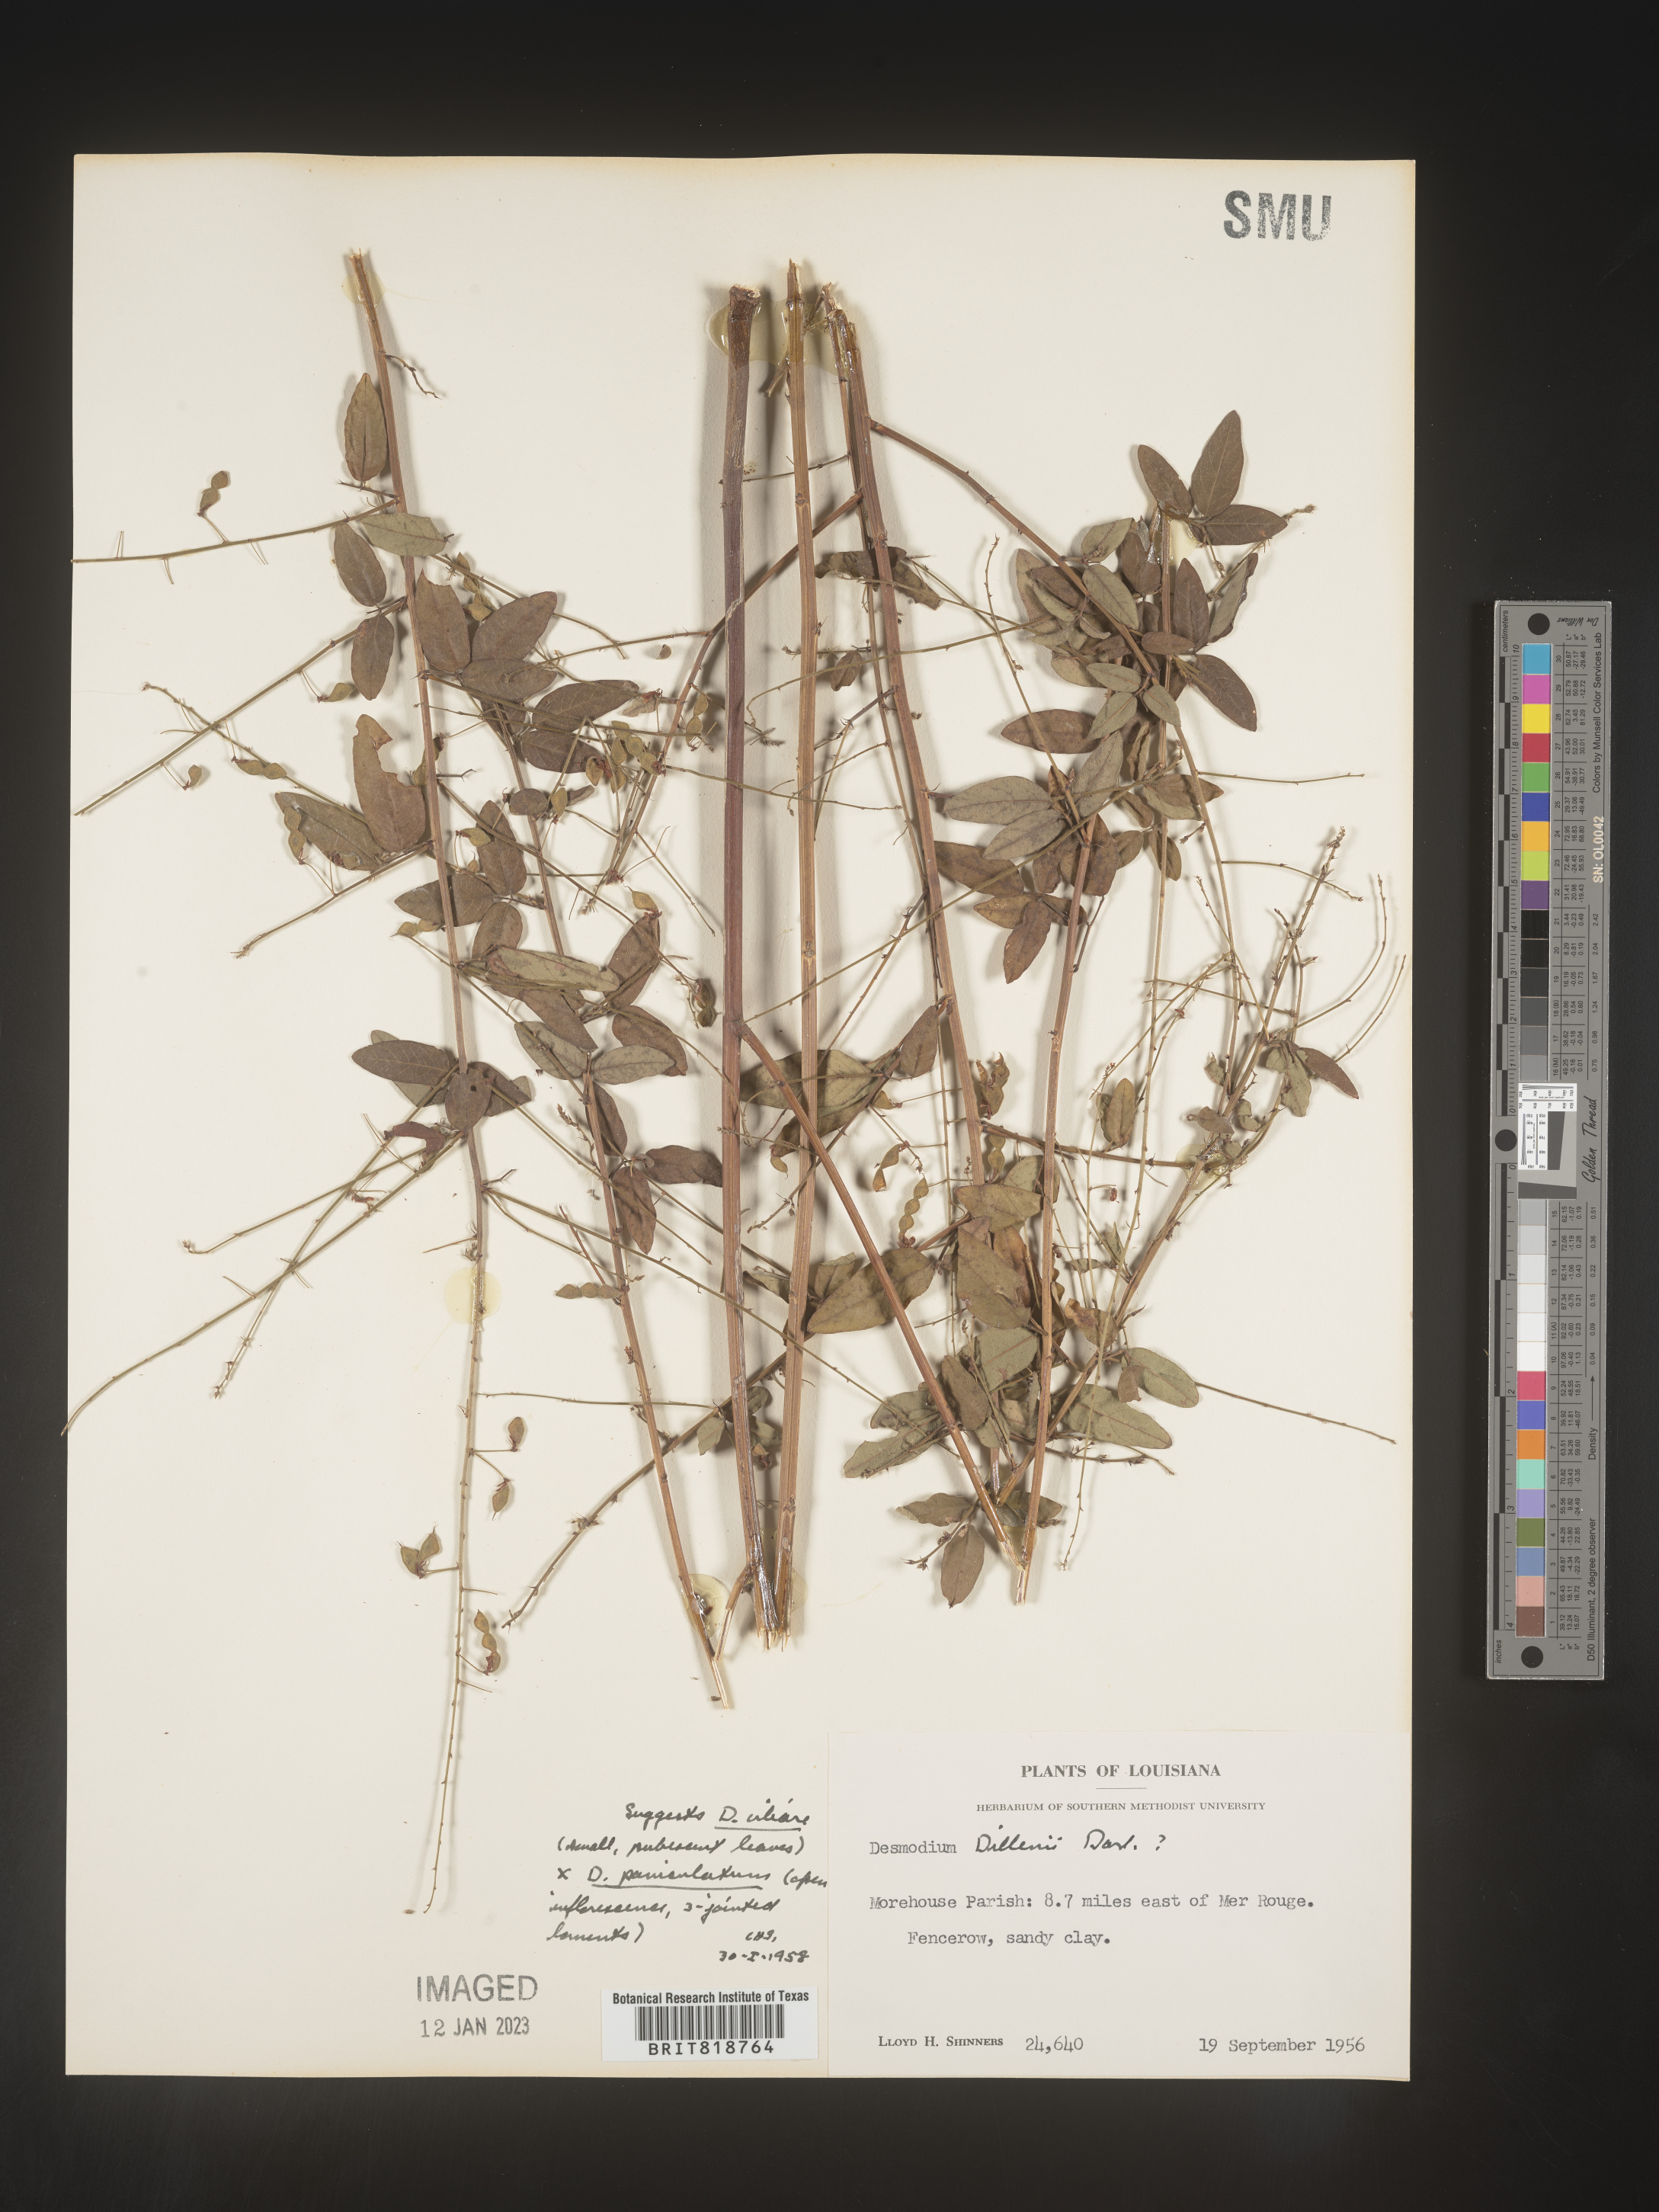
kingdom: Plantae
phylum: Tracheophyta
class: Magnoliopsida
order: Fabales
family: Fabaceae
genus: Desmodium
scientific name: Desmodium perplexum
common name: Perplexed tick trefoil
